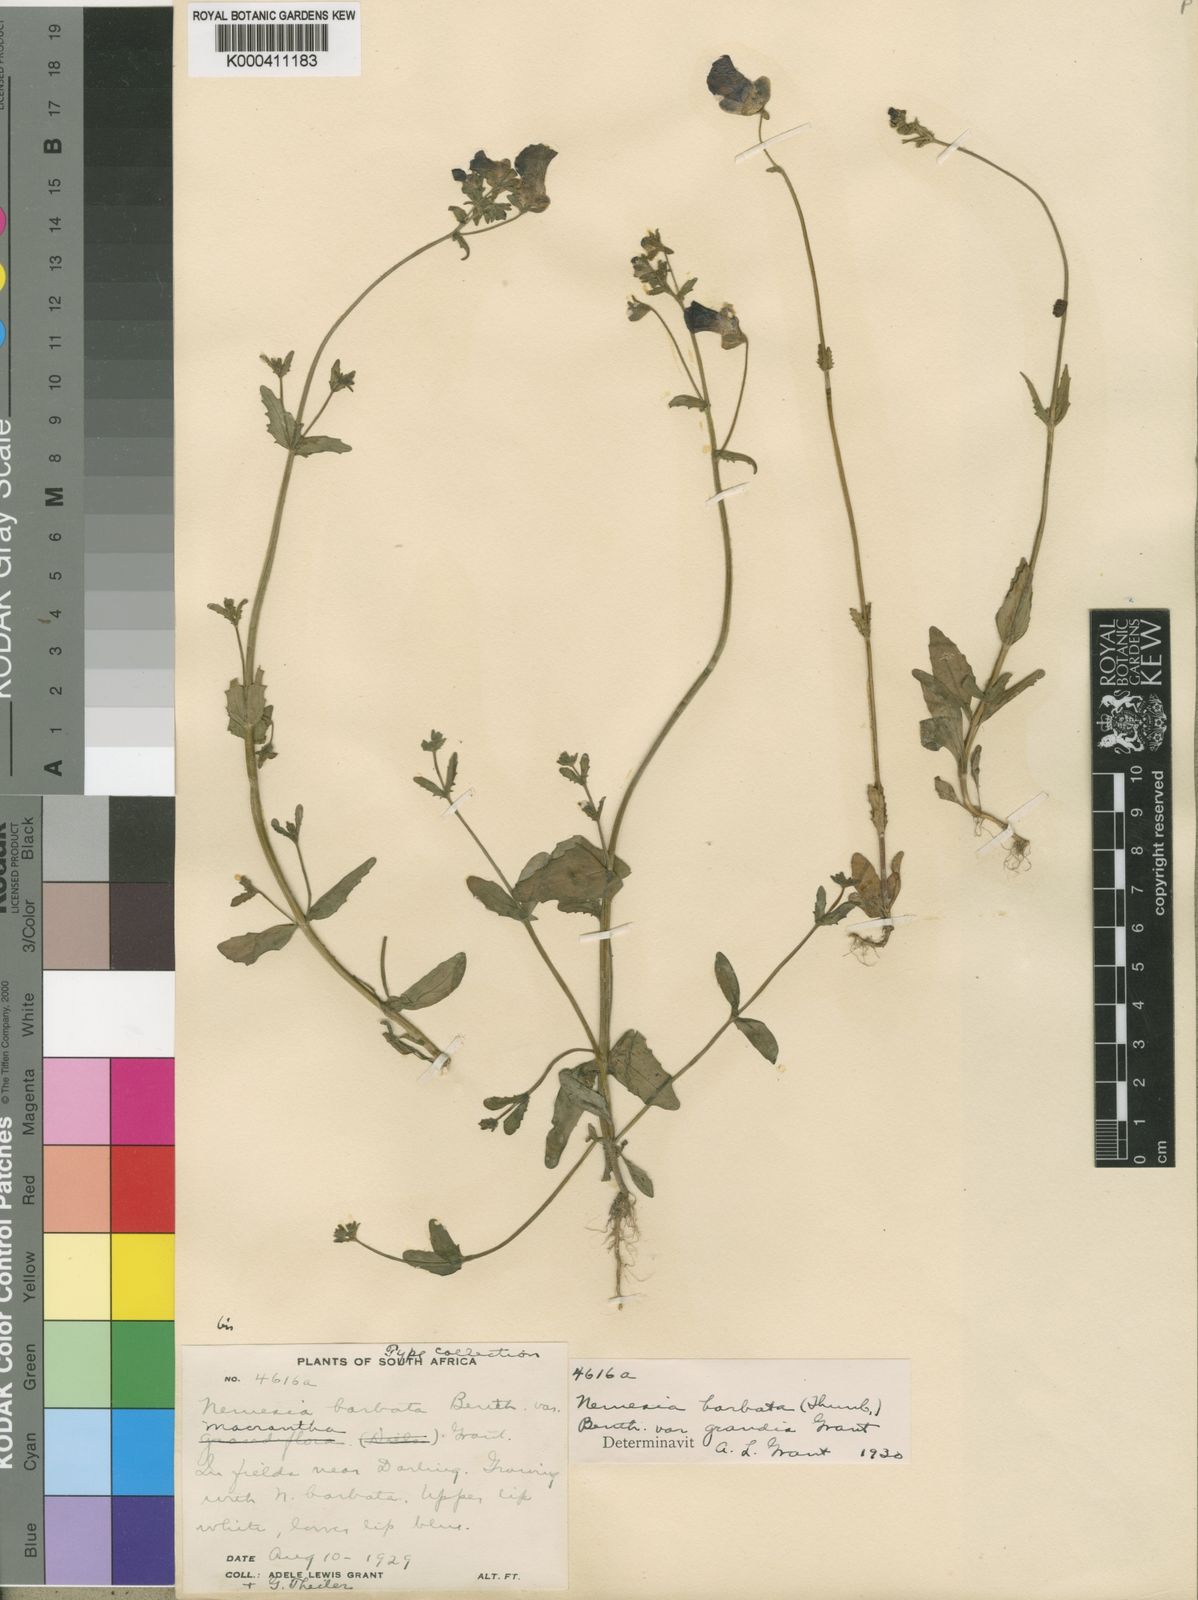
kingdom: Plantae
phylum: Tracheophyta
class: Magnoliopsida
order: Lamiales
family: Scrophulariaceae
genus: Nemesia
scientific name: Nemesia barbata
